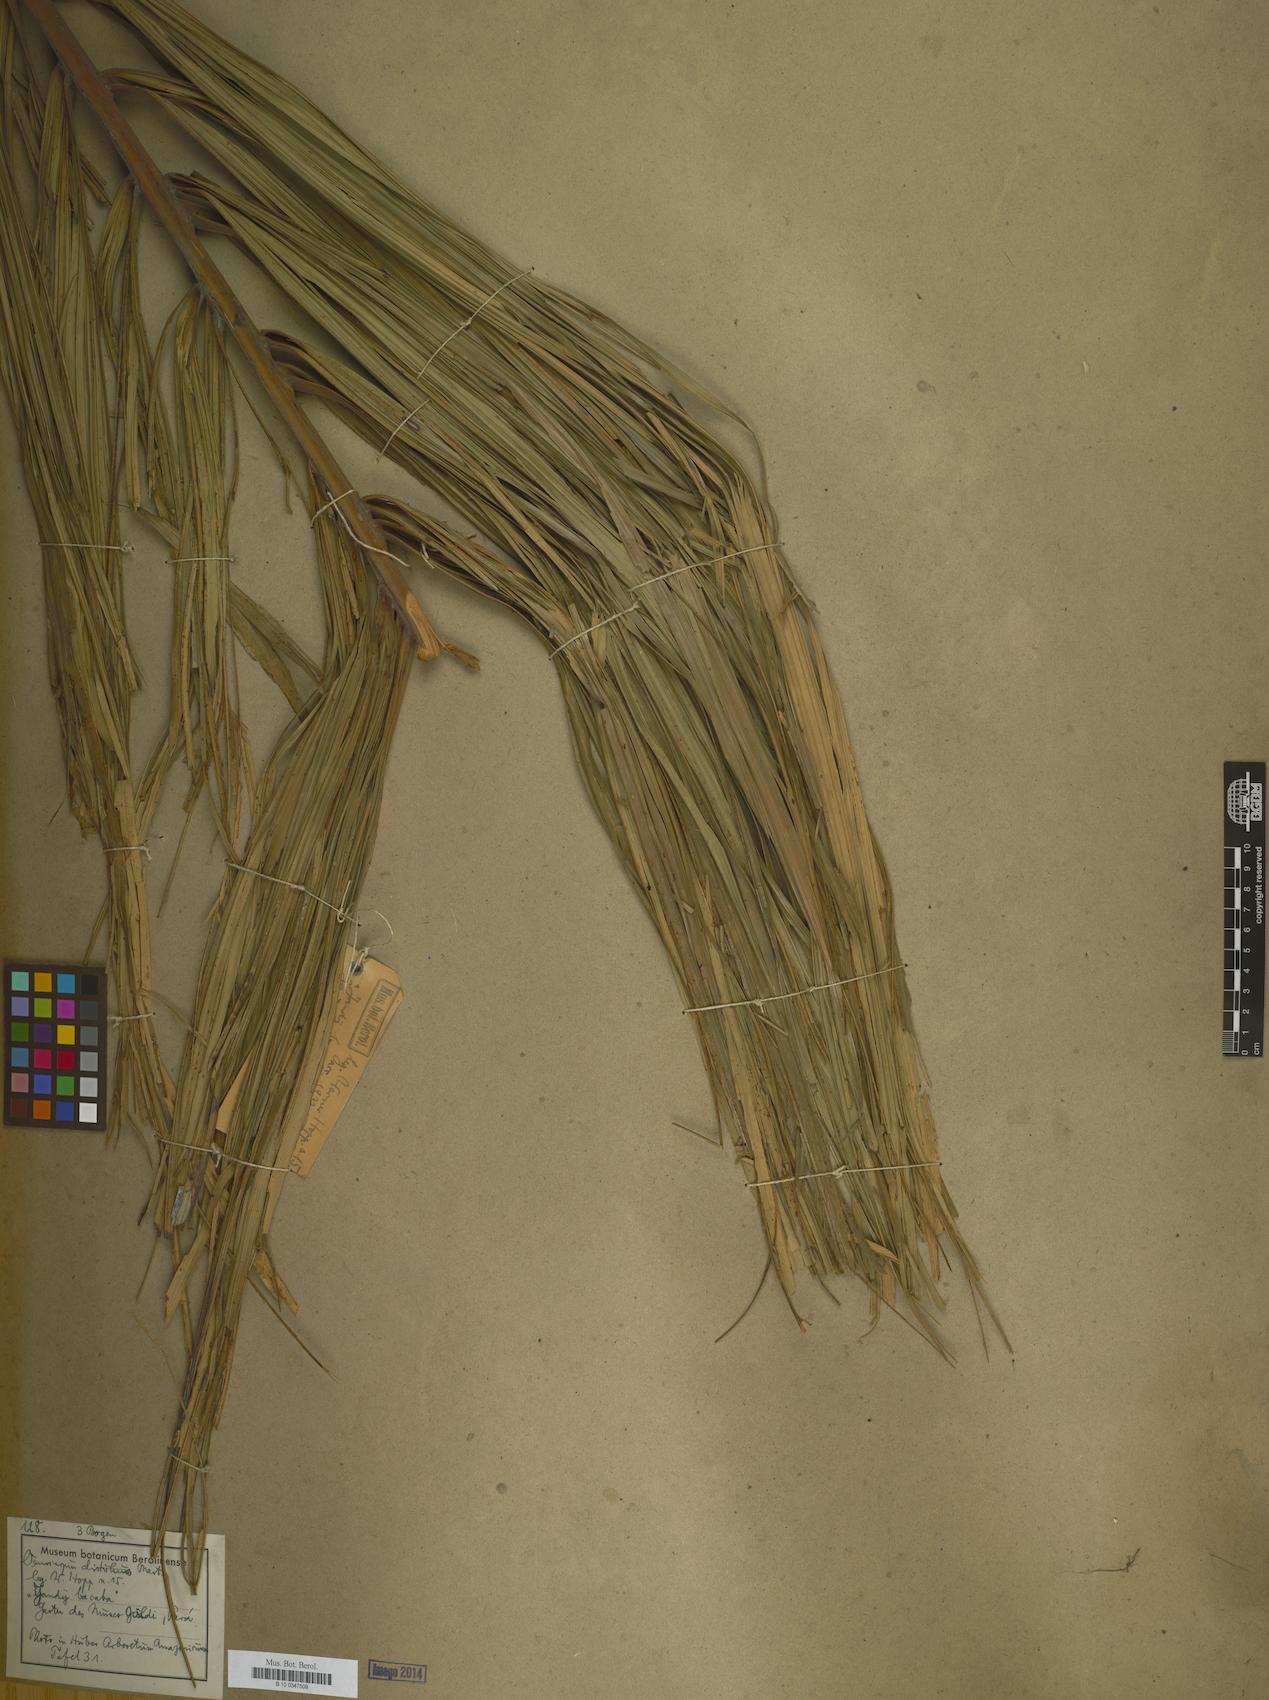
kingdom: Plantae
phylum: Tracheophyta
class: Liliopsida
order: Arecales
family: Arecaceae
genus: Oenocarpus
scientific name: Oenocarpus distichus
